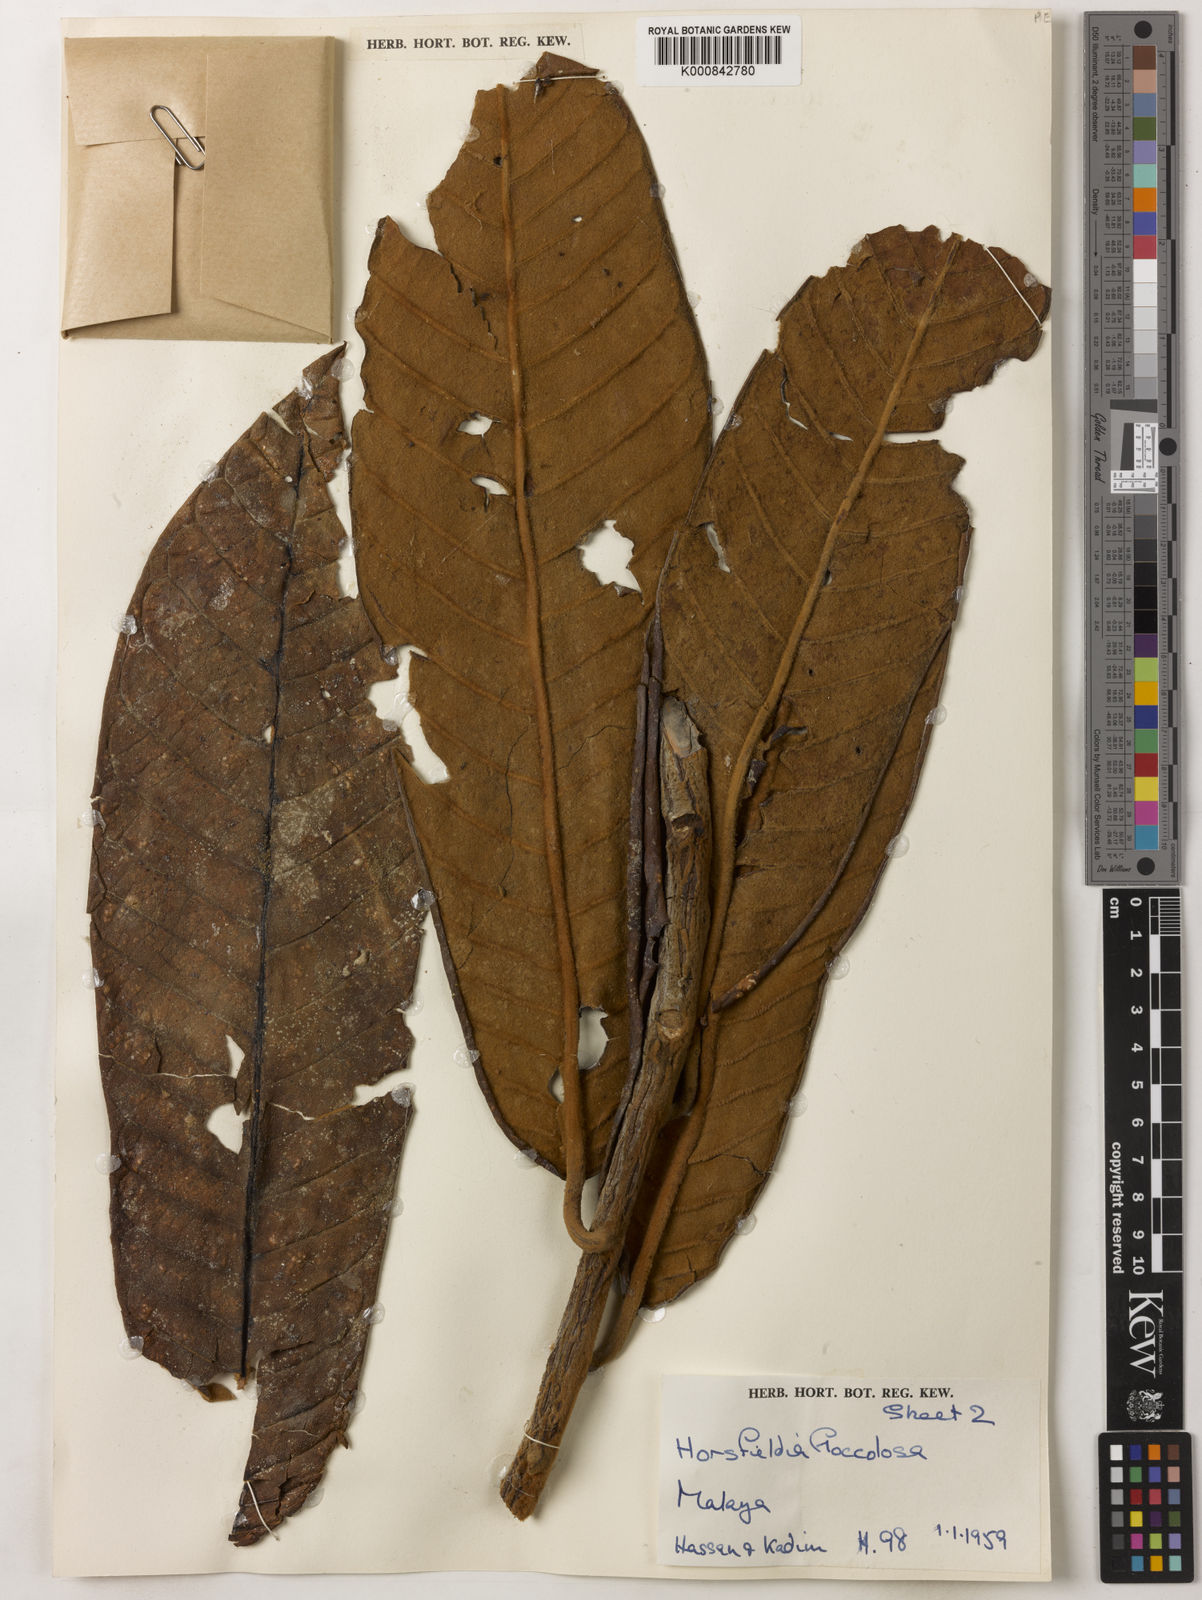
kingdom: Plantae
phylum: Tracheophyta
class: Magnoliopsida
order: Magnoliales
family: Myristicaceae
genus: Horsfieldia
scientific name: Horsfieldia flocculosa
